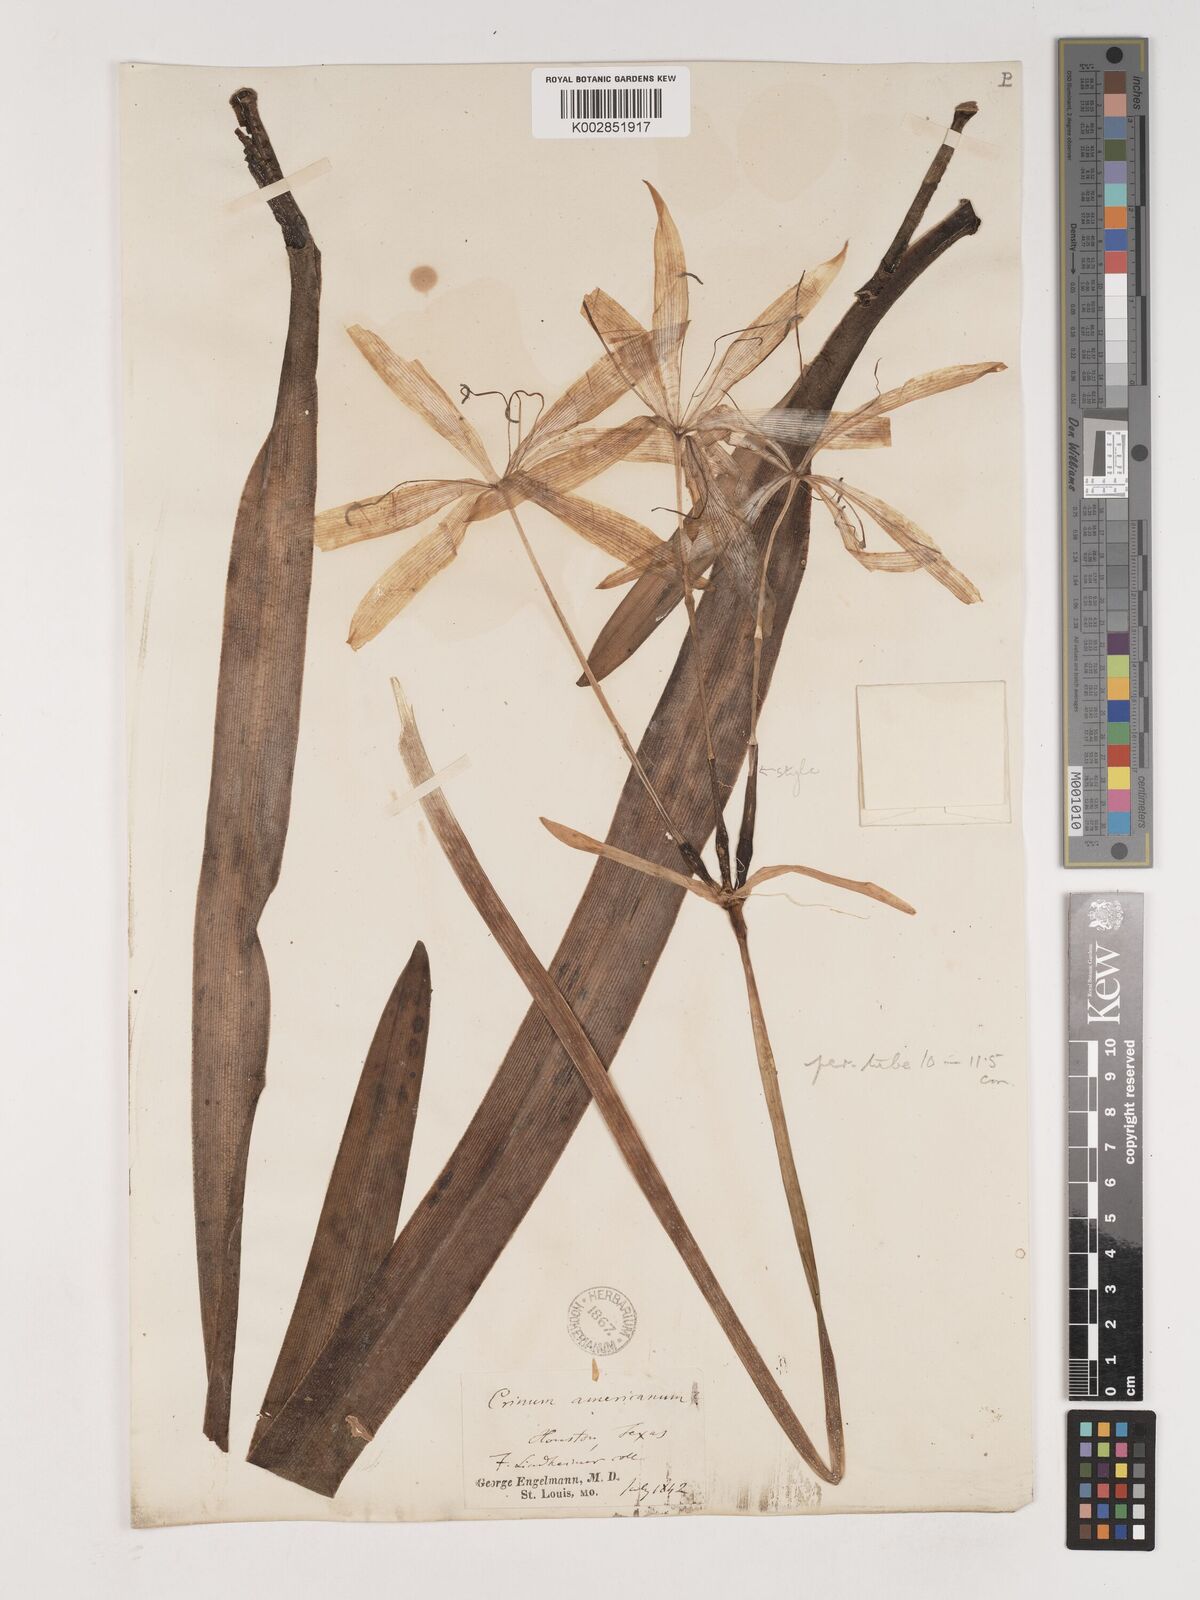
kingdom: Plantae
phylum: Tracheophyta
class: Liliopsida
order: Asparagales
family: Amaryllidaceae
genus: Crinum
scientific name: Crinum americanum
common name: Florida swamp-lily
